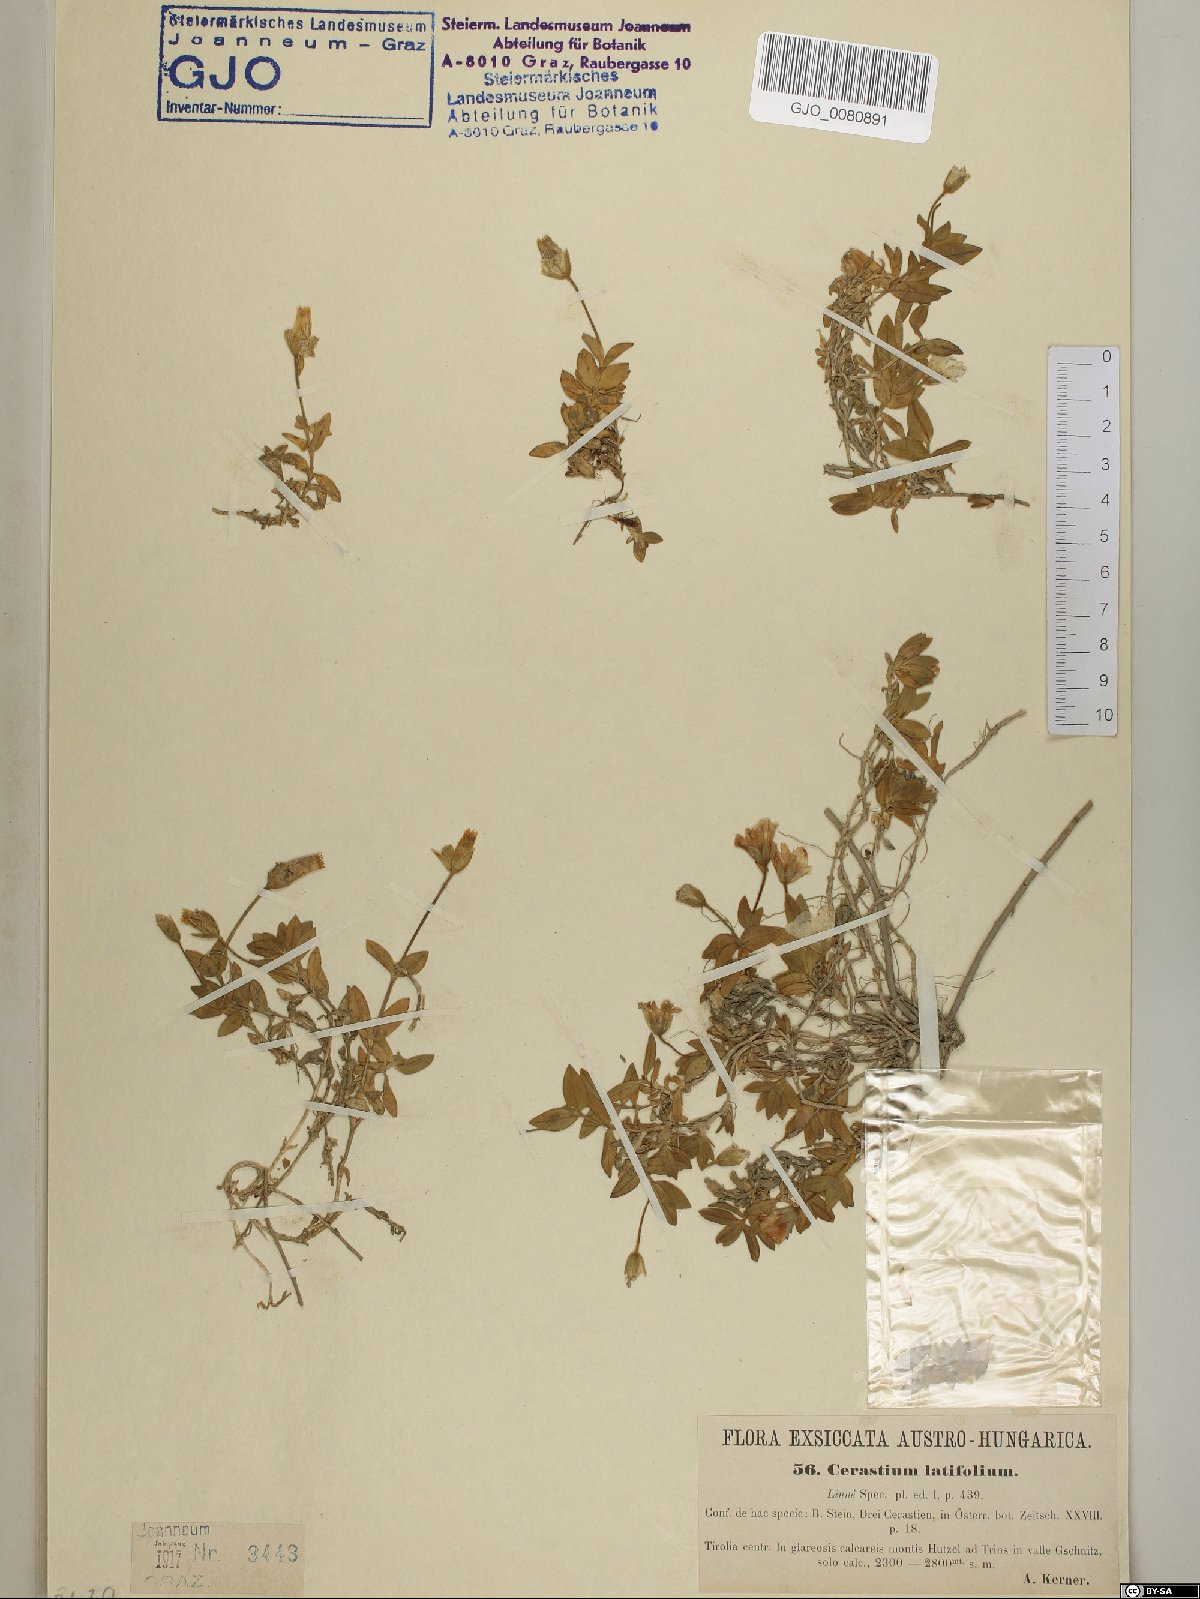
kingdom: Plantae
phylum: Tracheophyta
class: Magnoliopsida
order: Caryophyllales
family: Caryophyllaceae
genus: Cerastium
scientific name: Cerastium latifolium
